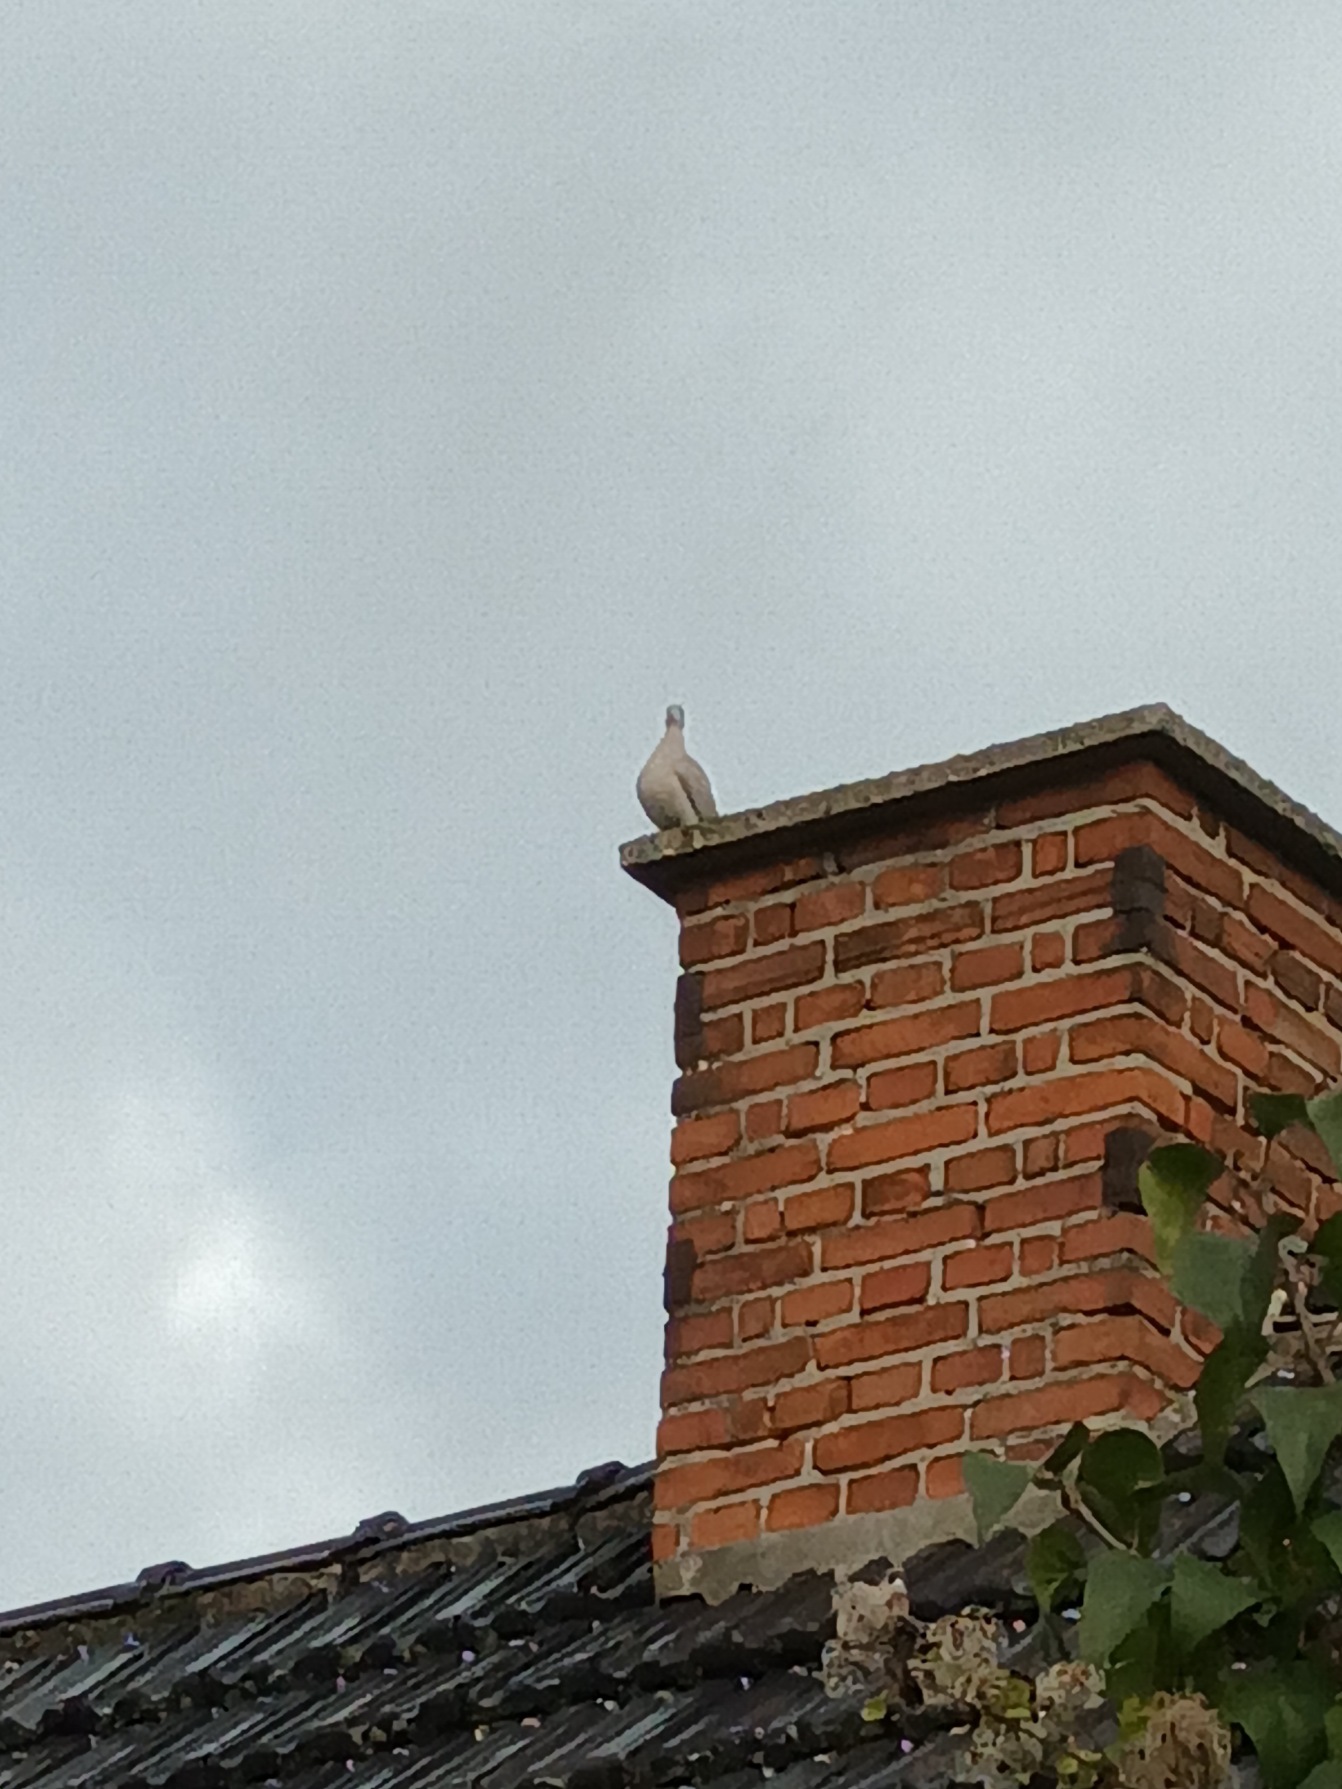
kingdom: Animalia
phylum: Chordata
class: Aves
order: Columbiformes
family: Columbidae
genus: Streptopelia
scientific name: Streptopelia decaocto
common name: Tyrkerdue
